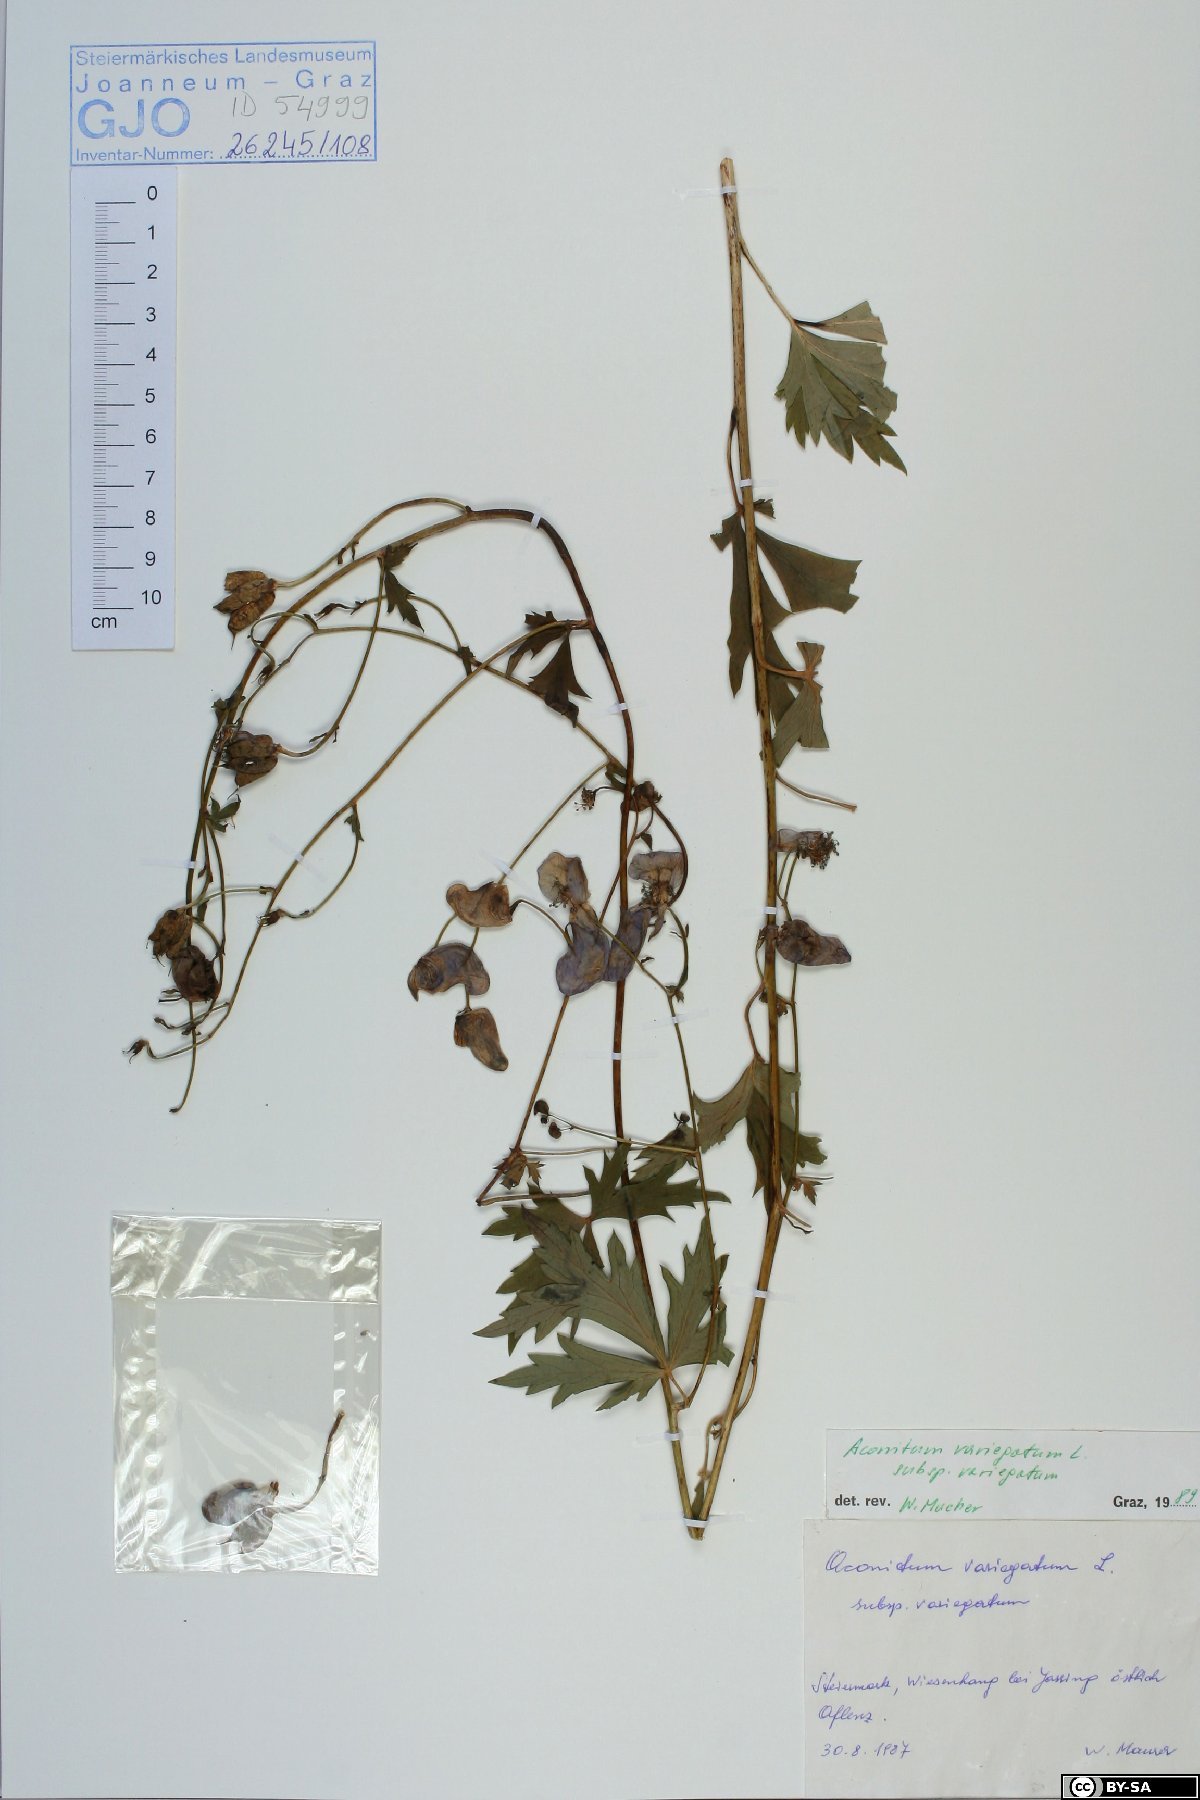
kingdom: Plantae
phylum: Tracheophyta
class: Magnoliopsida
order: Ranunculales
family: Ranunculaceae
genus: Aconitum
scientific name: Aconitum variegatum
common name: Manchurian monkshood
